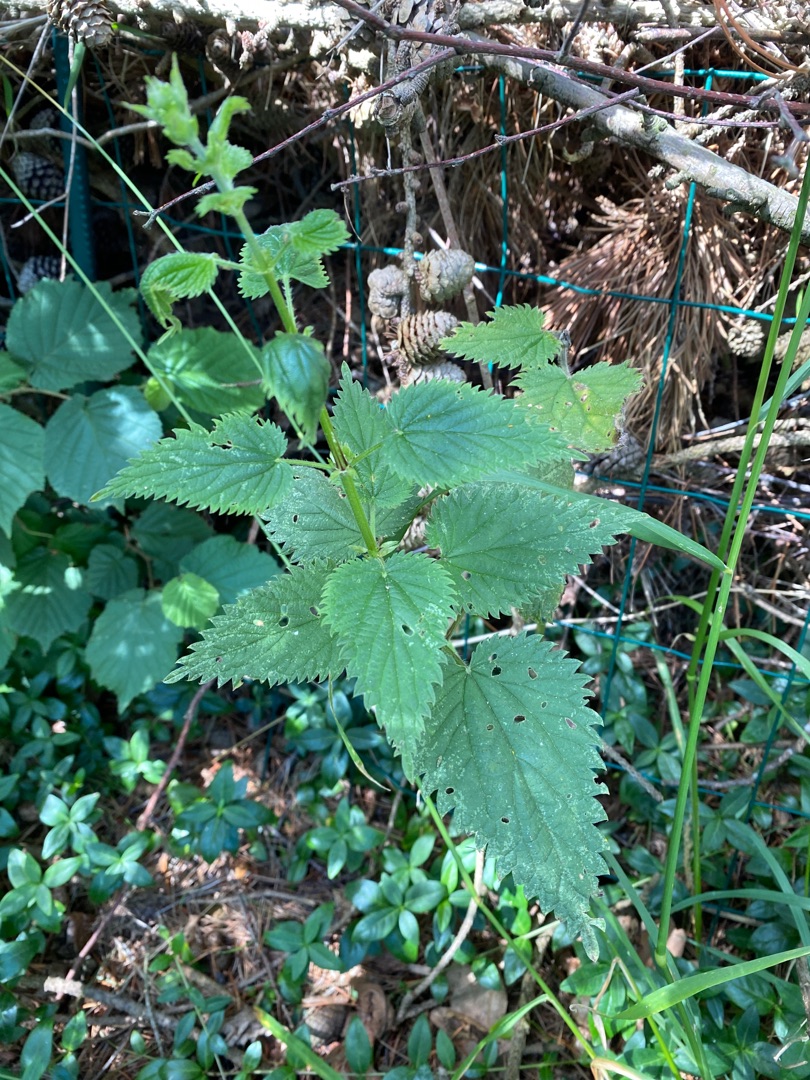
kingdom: Plantae
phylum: Tracheophyta
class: Magnoliopsida
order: Rosales
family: Urticaceae
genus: Urtica
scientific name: Urtica dioica
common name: Stor nælde
